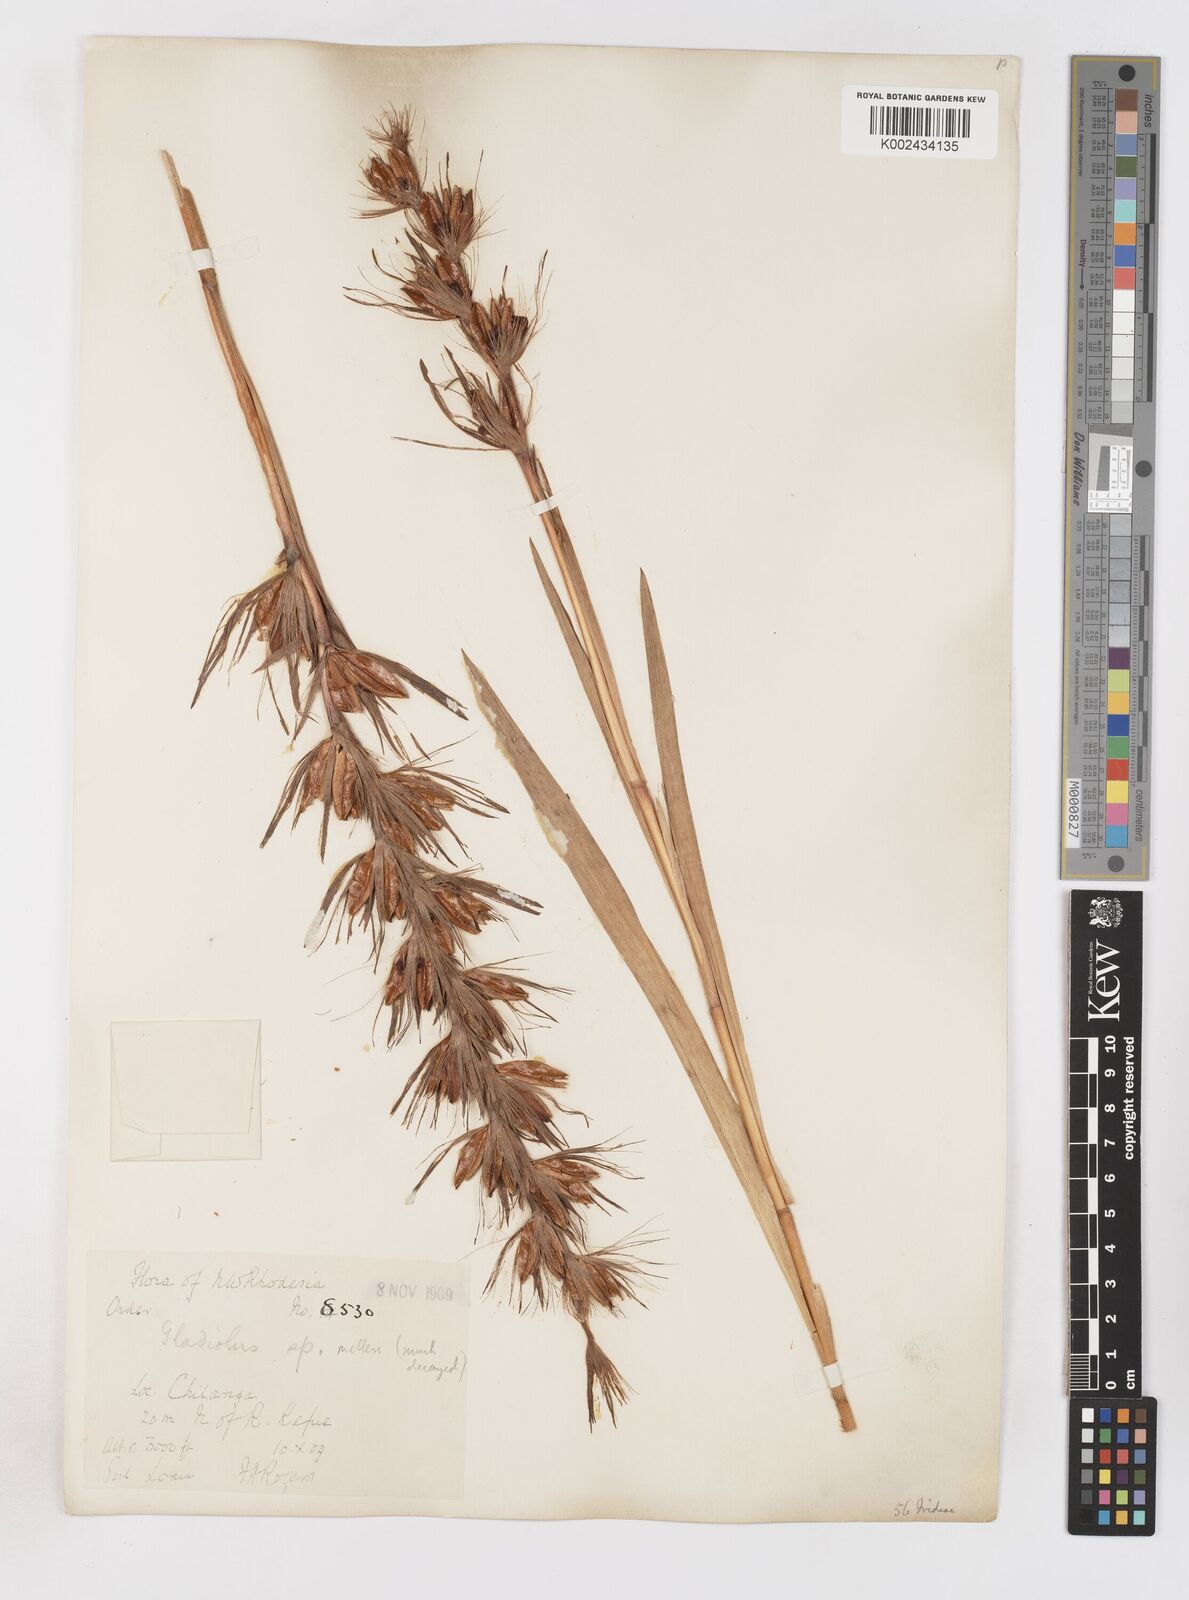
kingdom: Plantae
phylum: Tracheophyta
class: Liliopsida
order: Asparagales
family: Iridaceae
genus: Gladiolus
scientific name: Gladiolus gregarius
